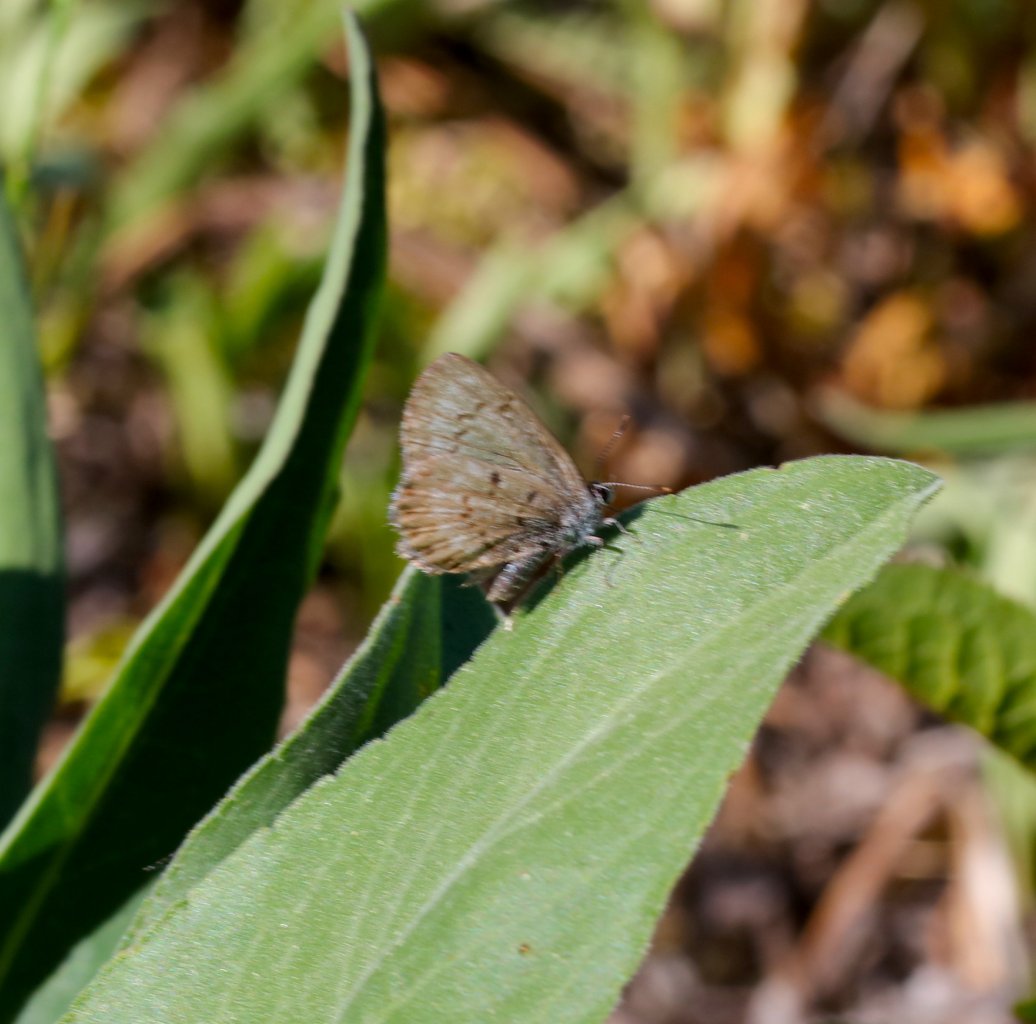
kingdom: Animalia
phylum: Arthropoda
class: Insecta
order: Lepidoptera
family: Lycaenidae
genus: Celastrina
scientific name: Celastrina ladon
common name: Spring Azure
